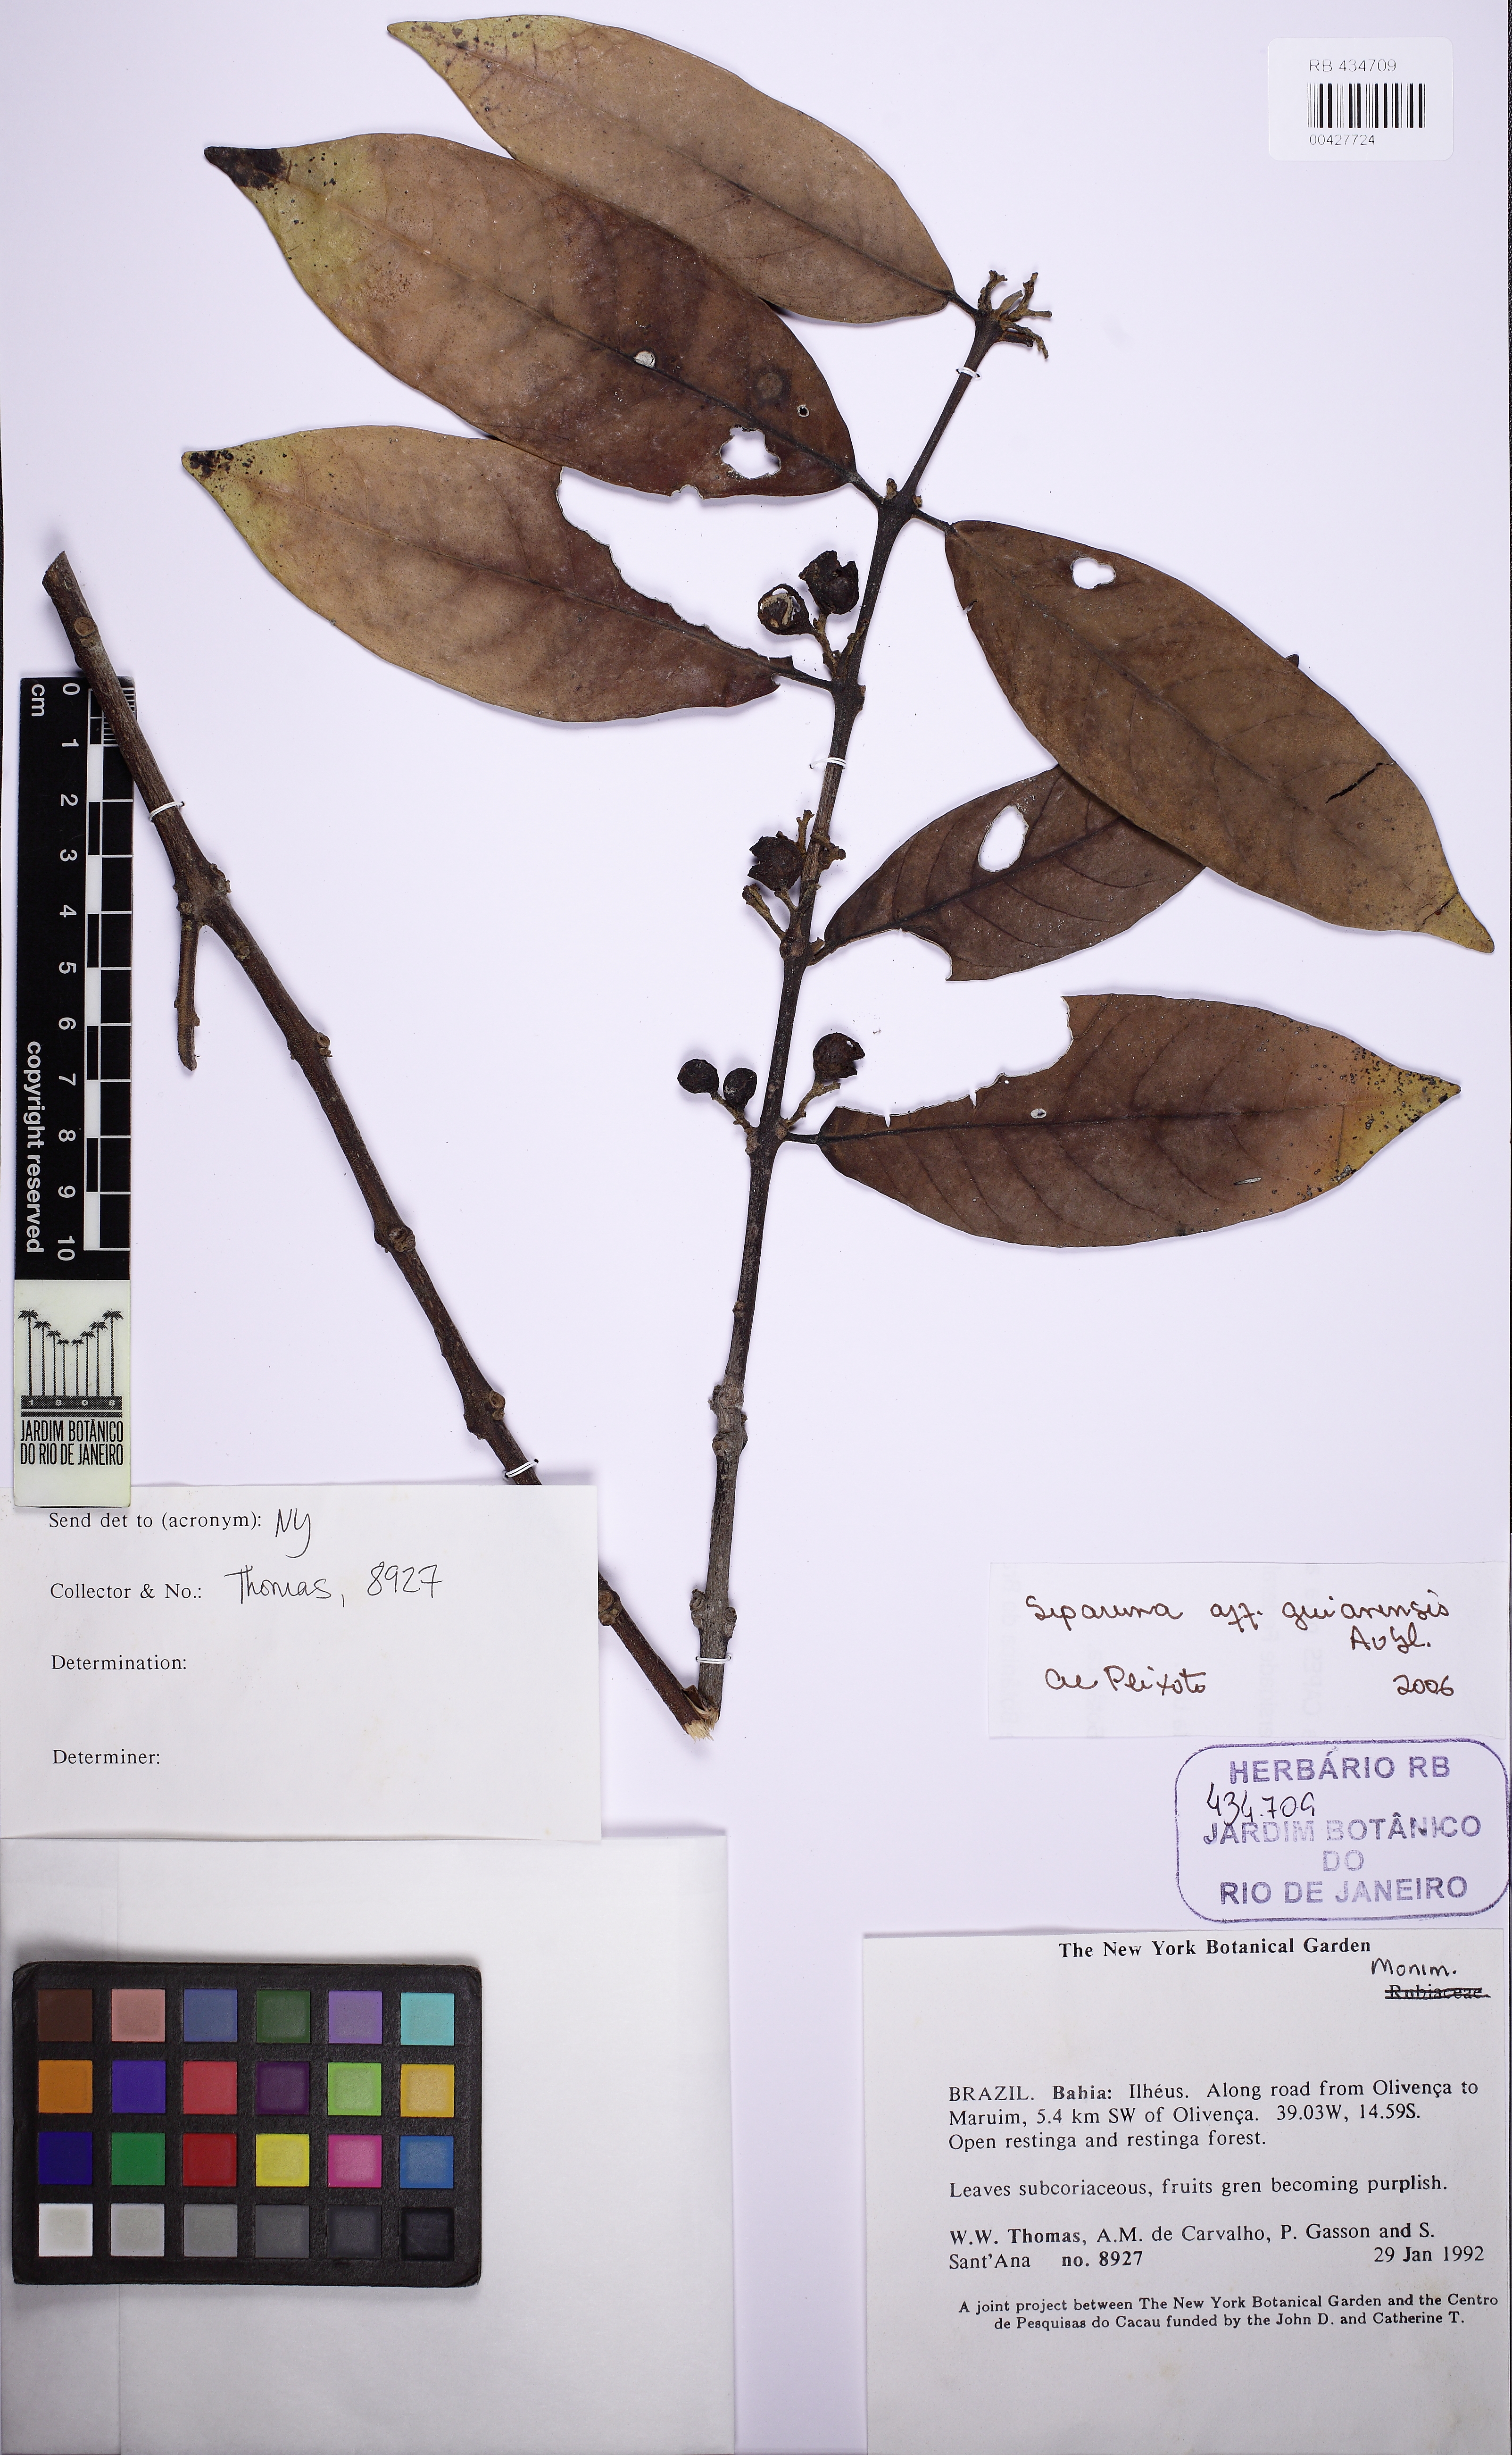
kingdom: Plantae
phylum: Tracheophyta
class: Magnoliopsida
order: Laurales
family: Siparunaceae
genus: Siparuna
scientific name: Siparuna guianensis
